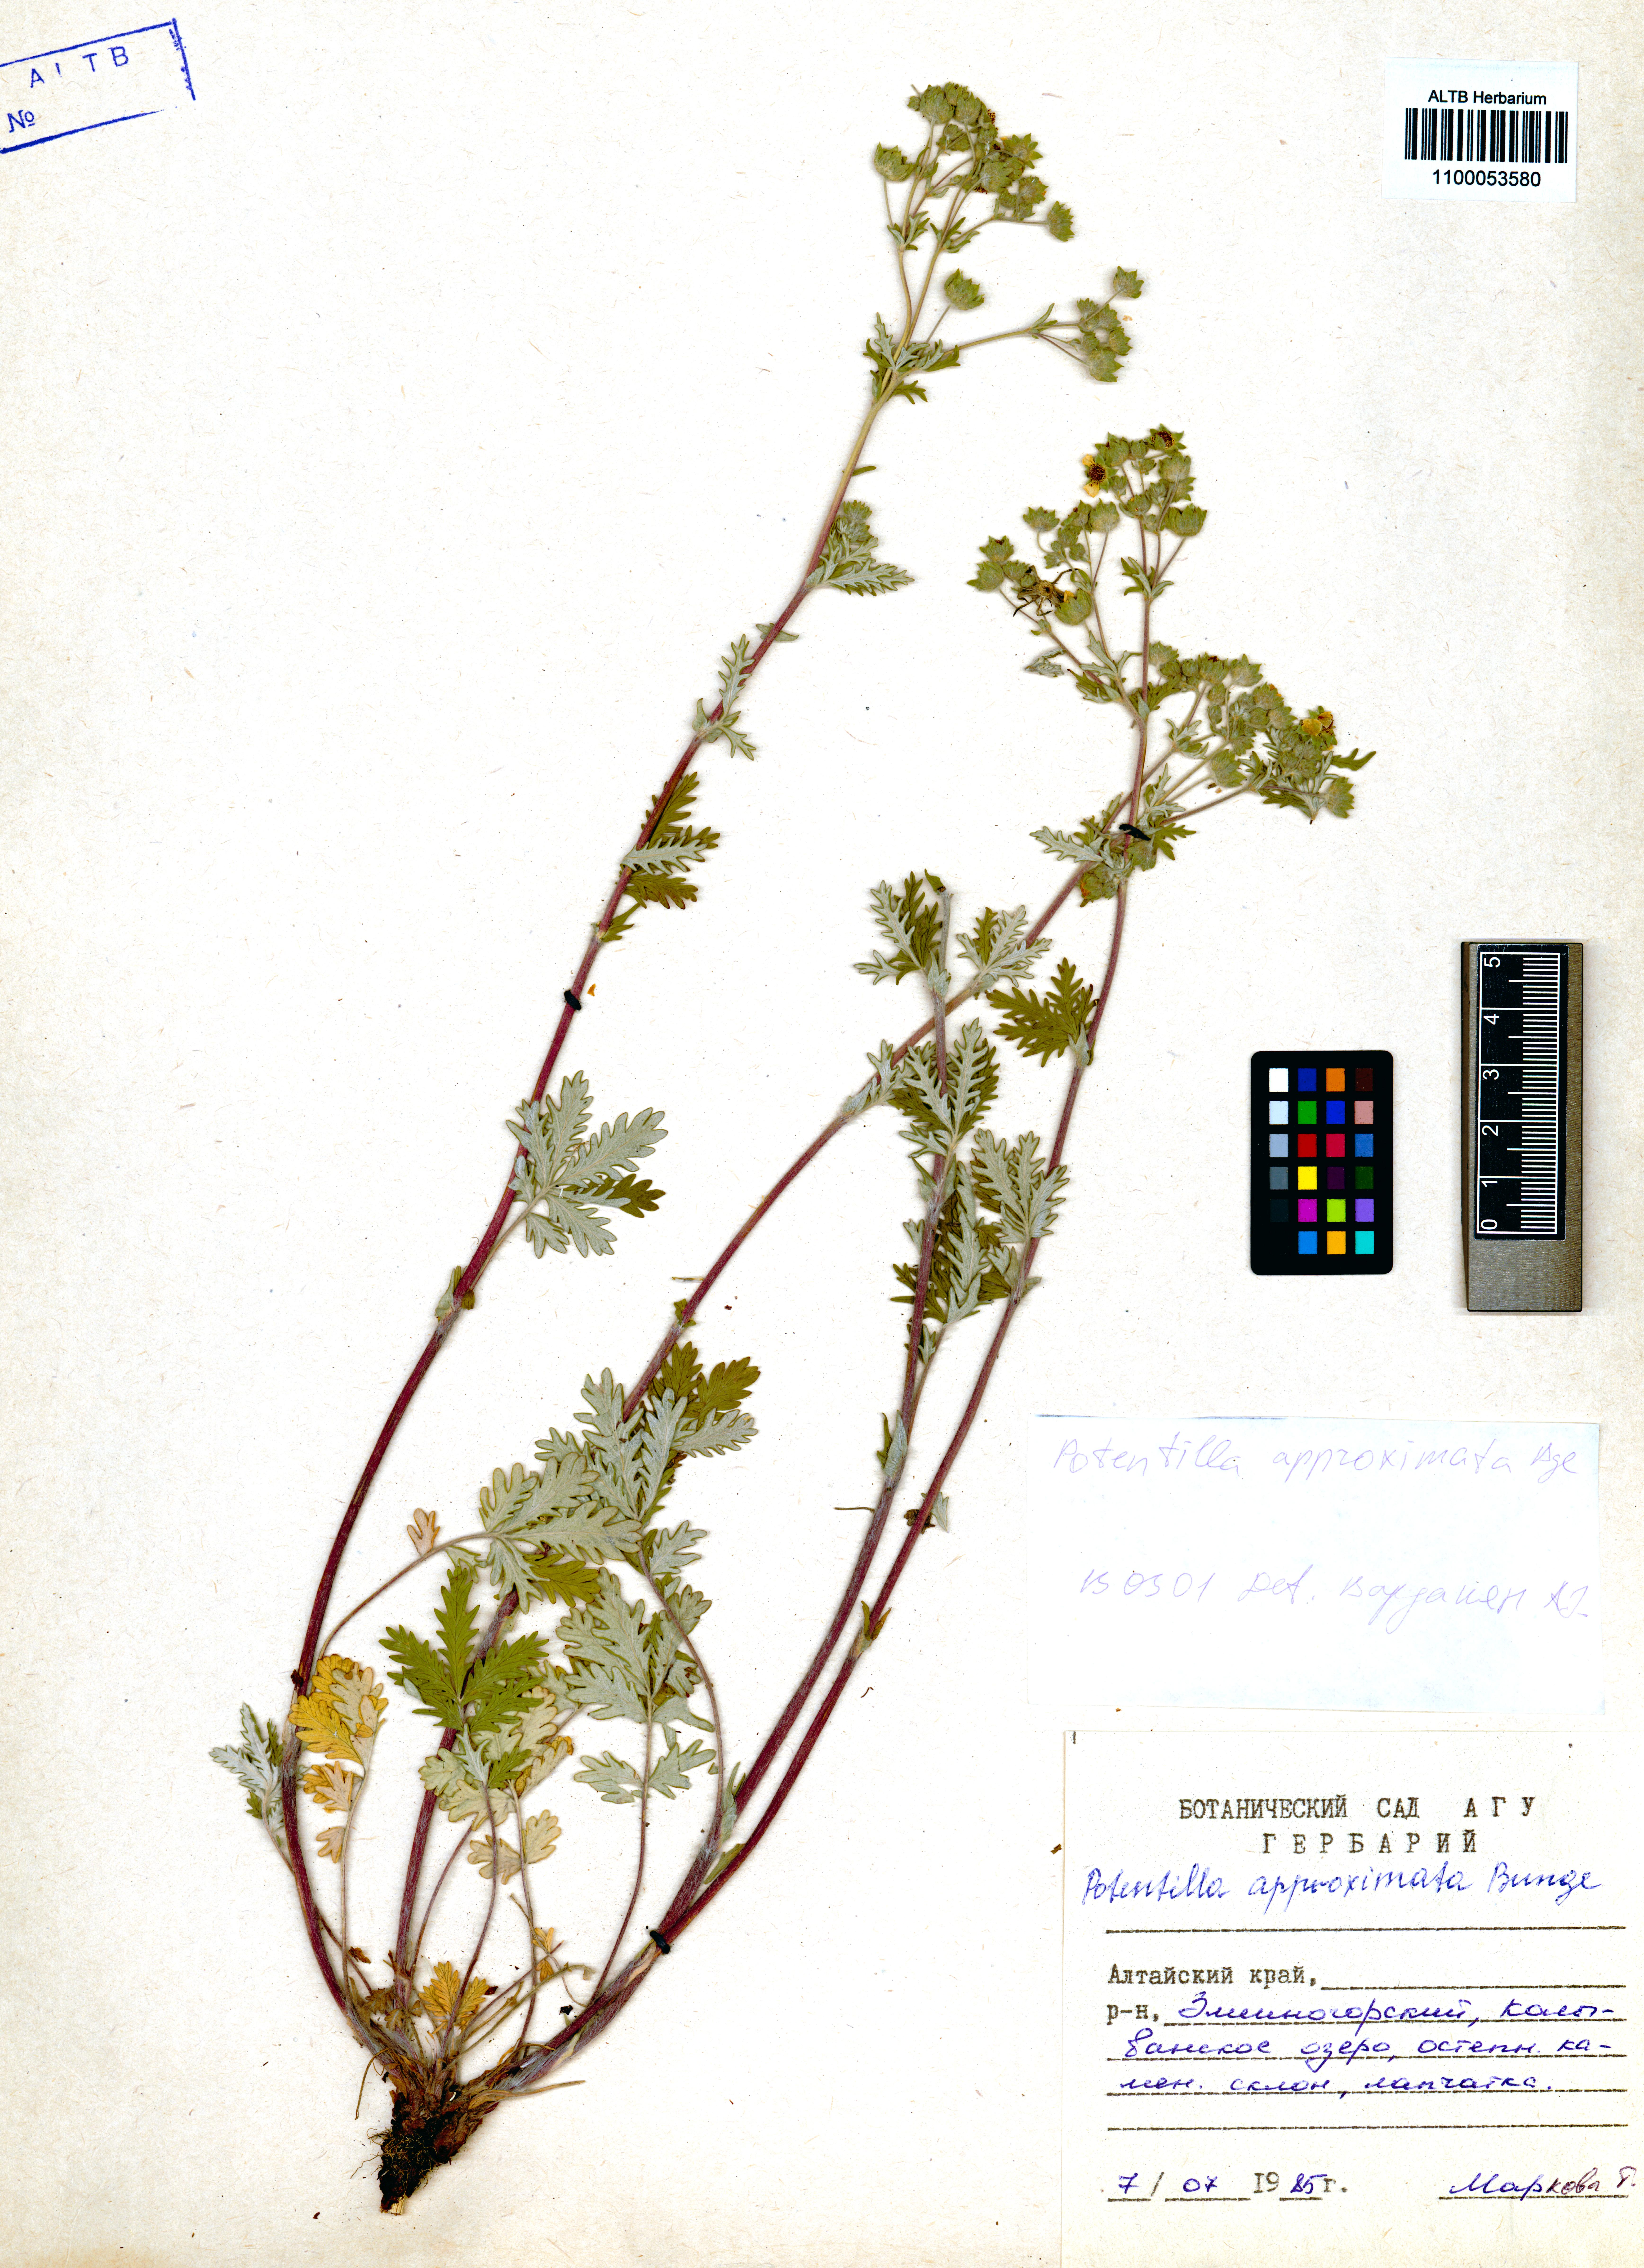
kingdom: Plantae
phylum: Tracheophyta
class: Magnoliopsida
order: Rosales
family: Rosaceae
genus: Potentilla
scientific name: Potentilla conferta
